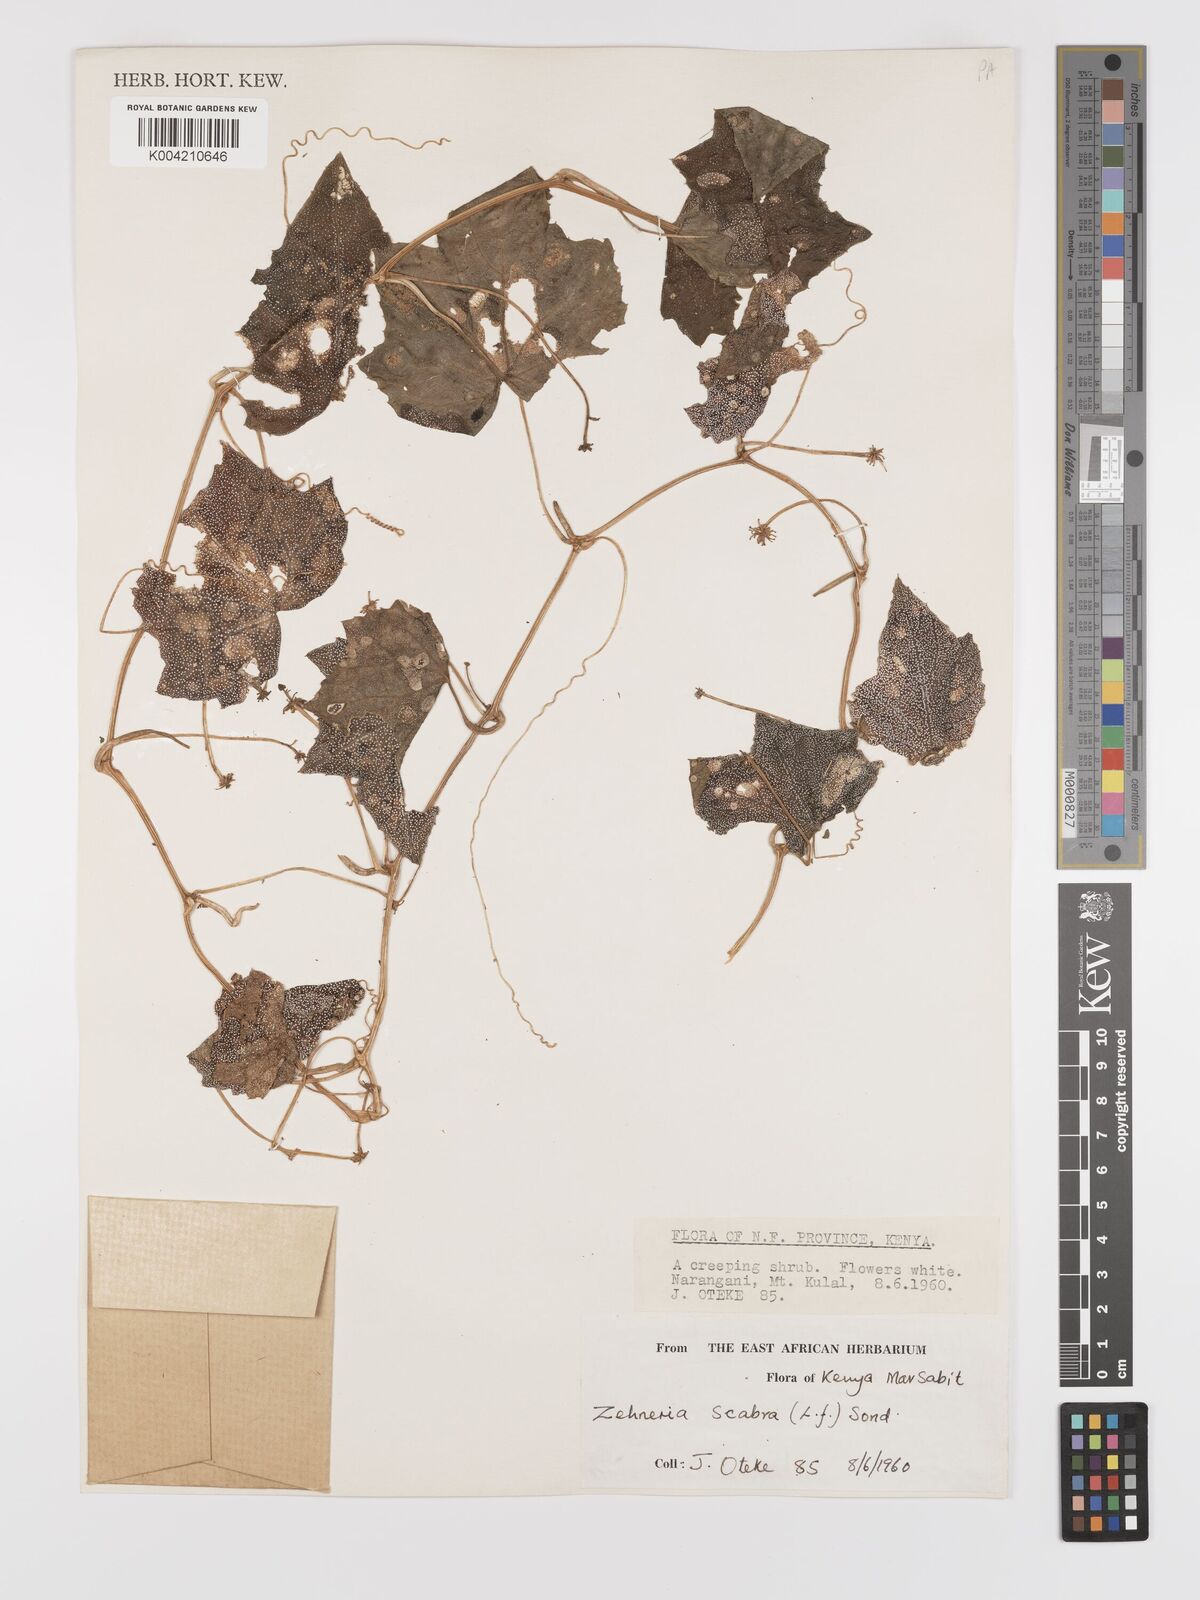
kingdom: Plantae
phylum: Tracheophyta
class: Magnoliopsida
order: Cucurbitales
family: Cucurbitaceae
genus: Zehneria
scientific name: Zehneria
